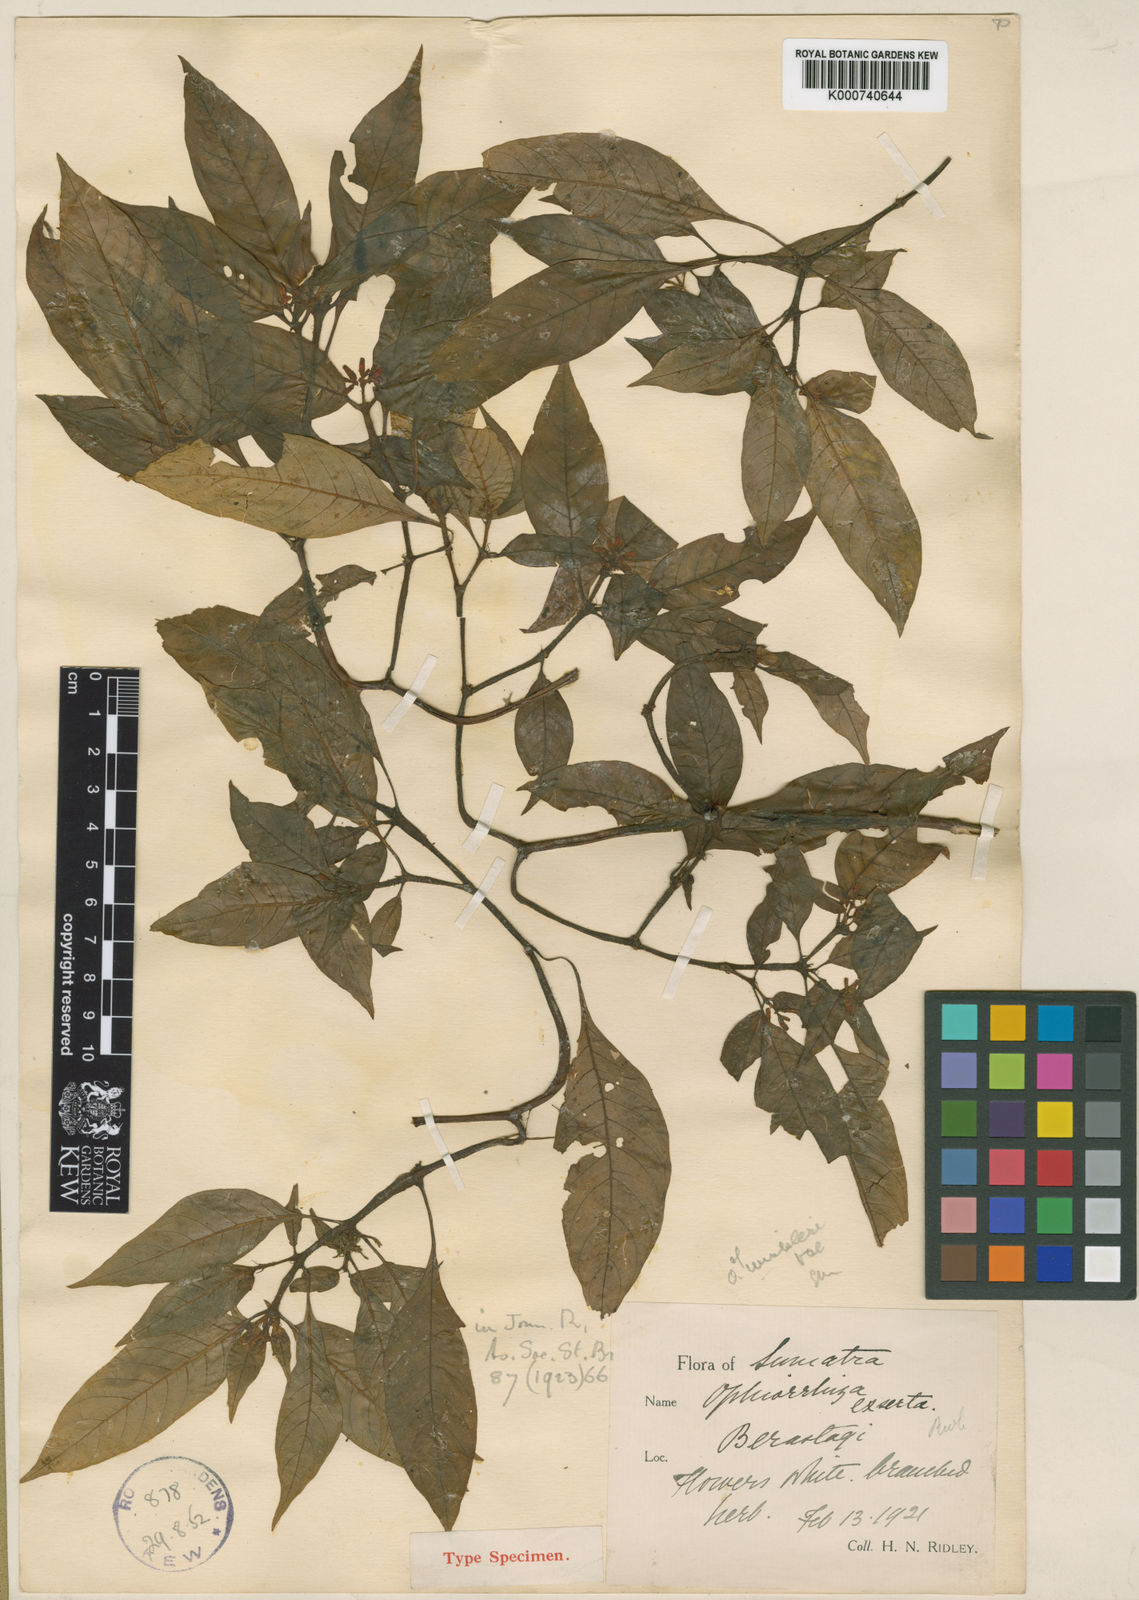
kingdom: Plantae
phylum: Tracheophyta
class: Magnoliopsida
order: Gentianales
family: Rubiaceae
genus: Ophiorrhiza
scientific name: Ophiorrhiza exserta
